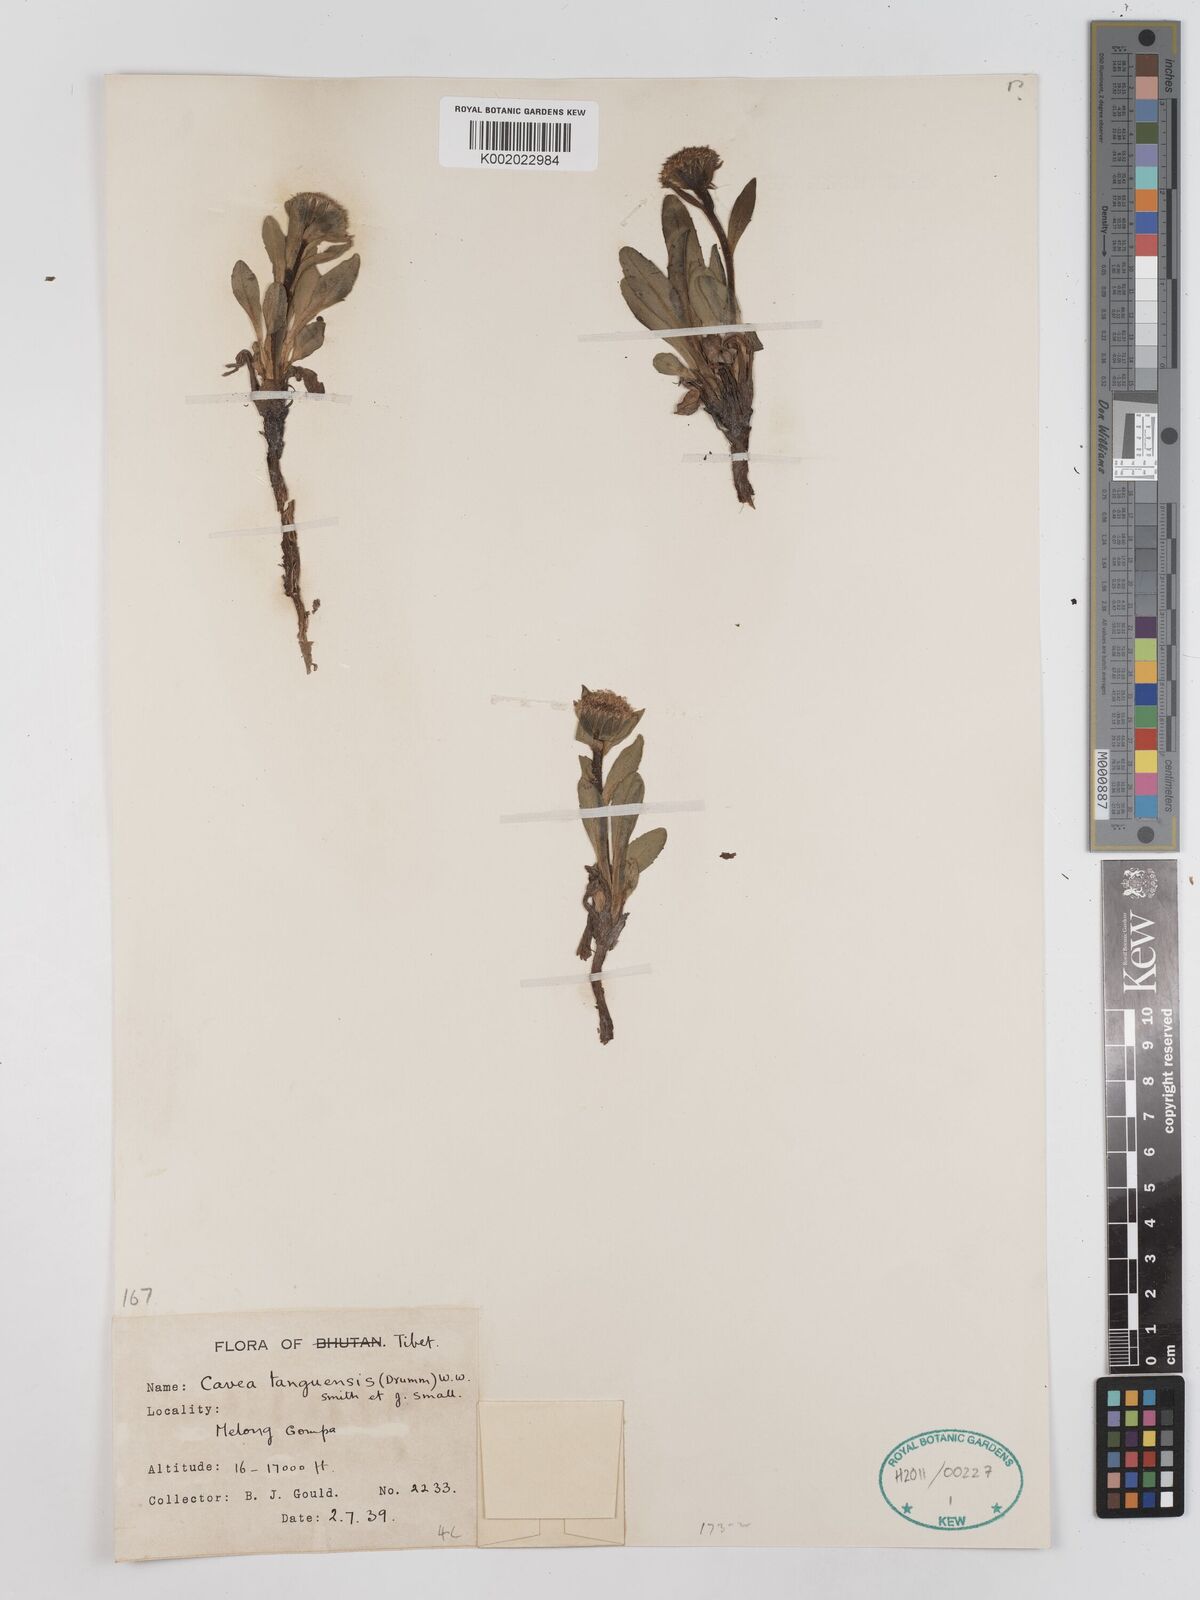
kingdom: Plantae
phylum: Tracheophyta
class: Magnoliopsida
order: Asterales
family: Asteraceae
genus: Cavea
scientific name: Cavea tanguensis
